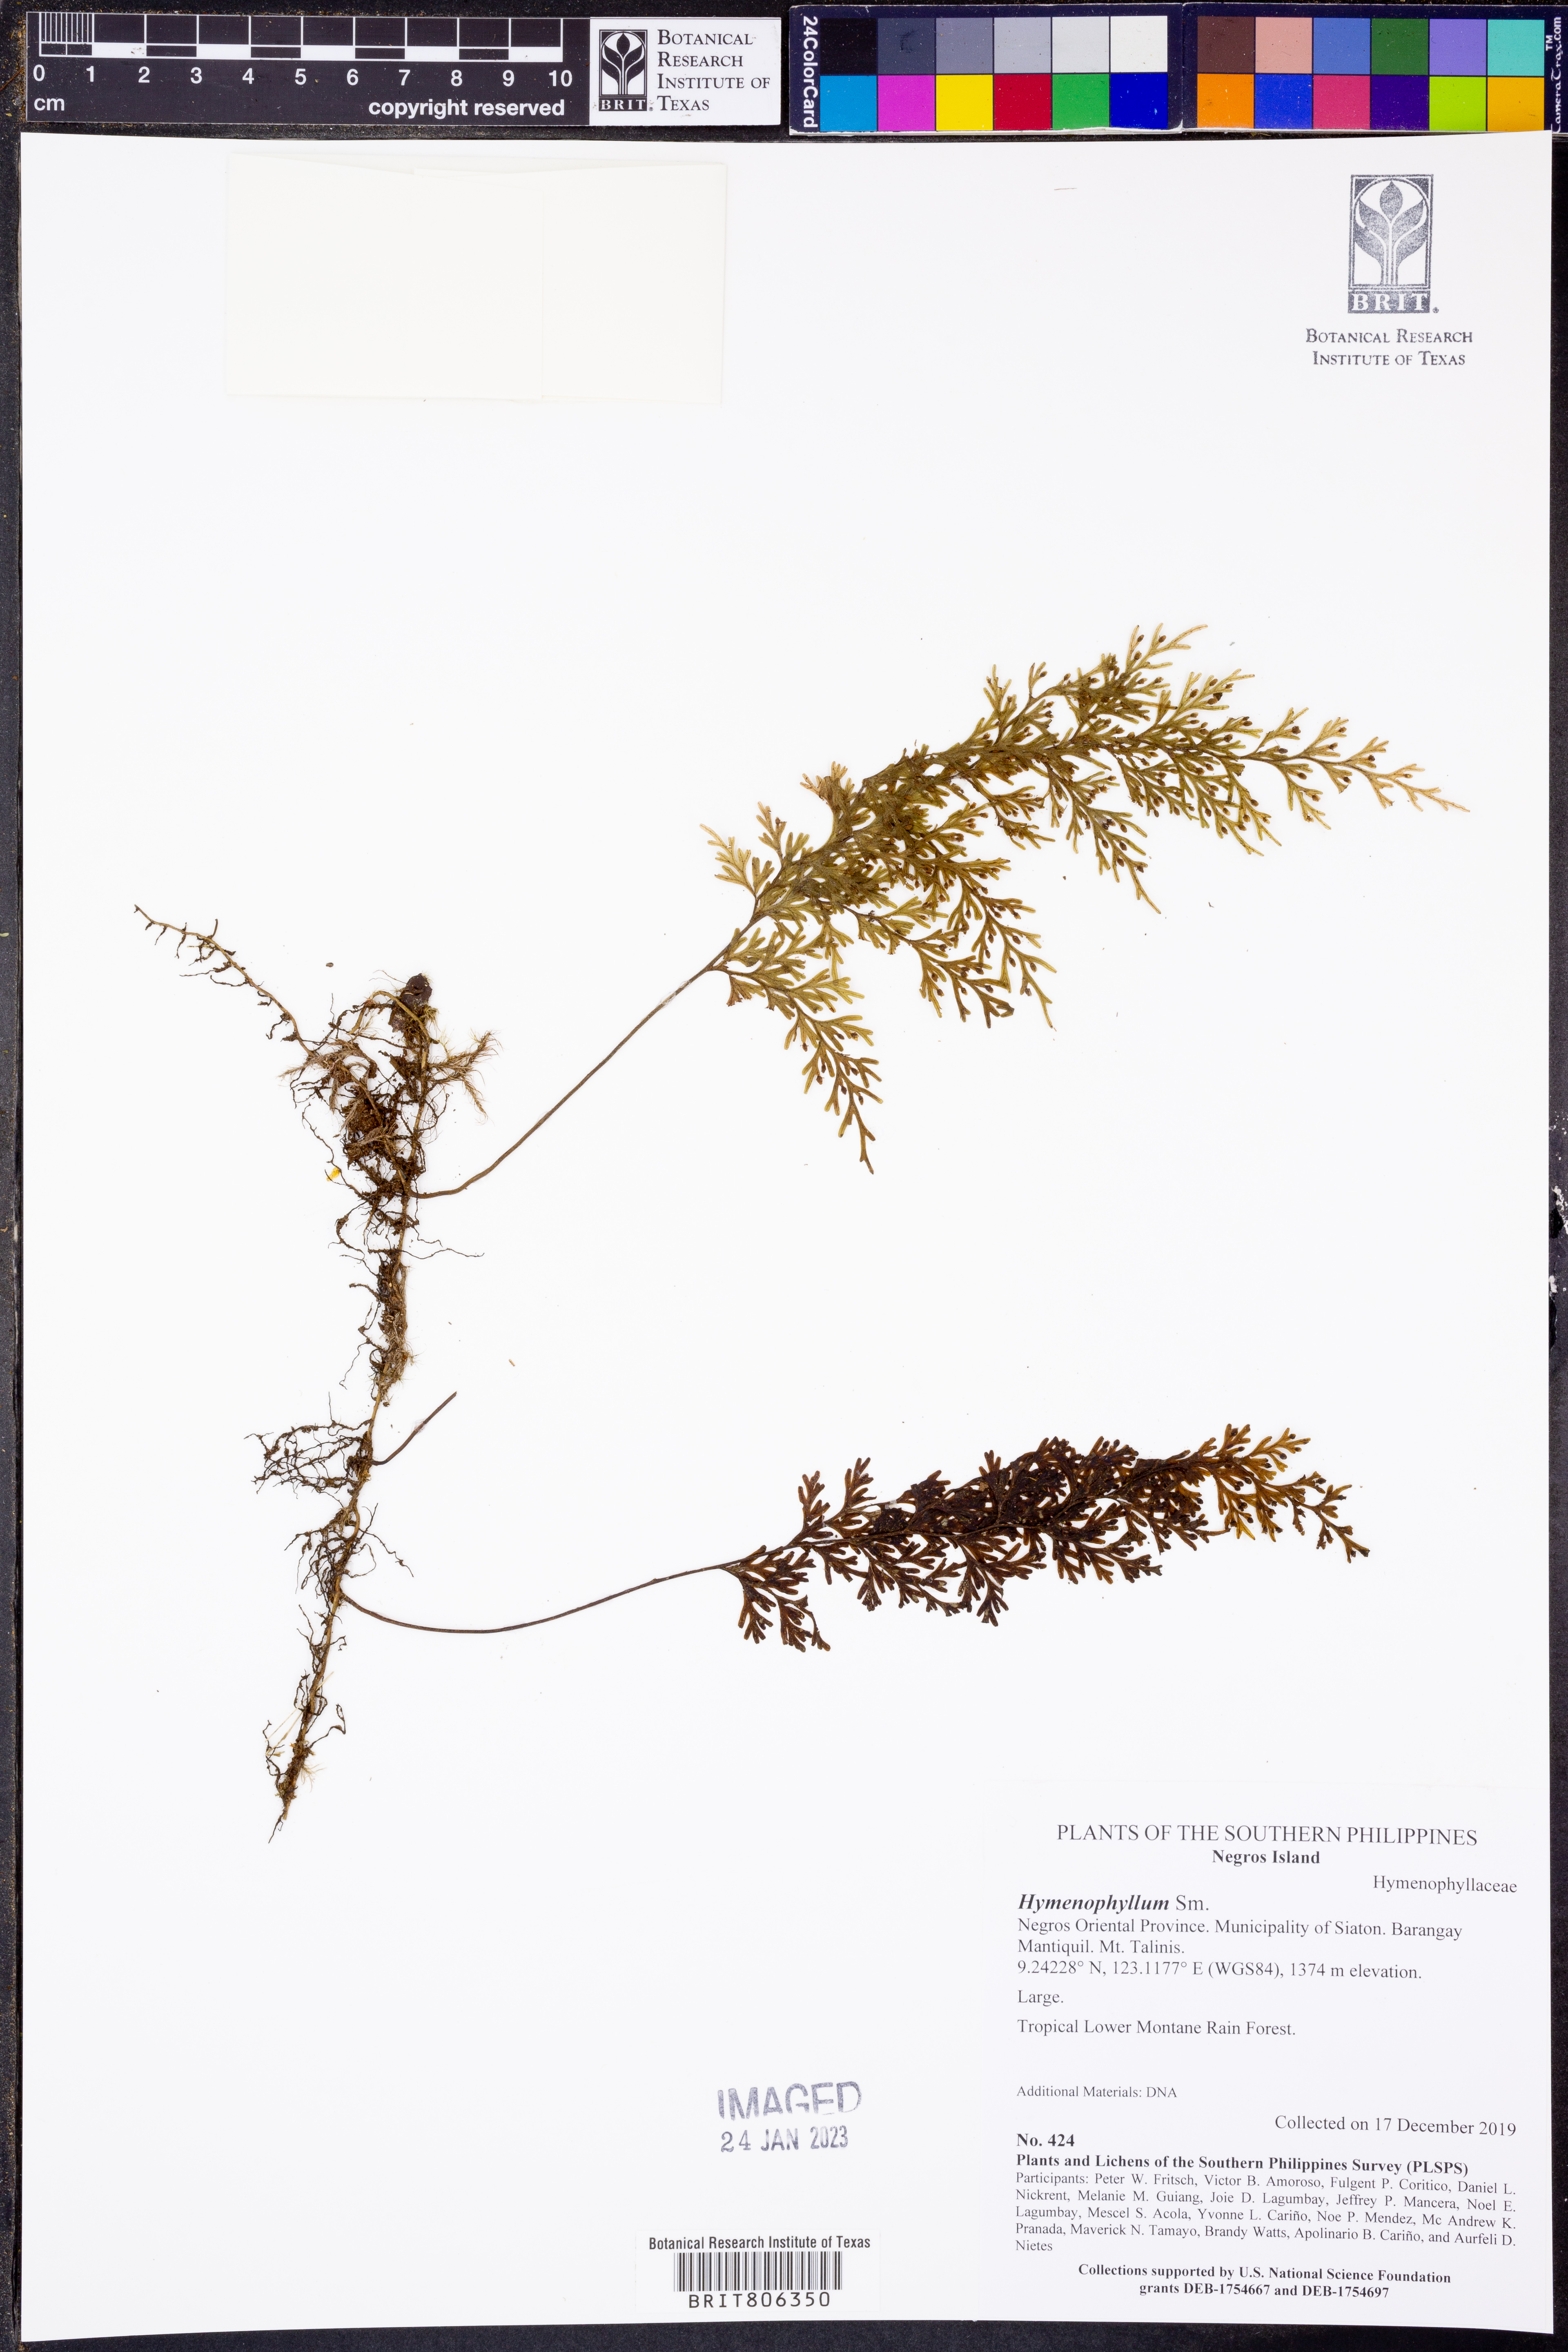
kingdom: Plantae
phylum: Tracheophyta
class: Polypodiopsida
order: Hymenophyllales
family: Hymenophyllaceae
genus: Hymenophyllum
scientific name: Hymenophyllum
